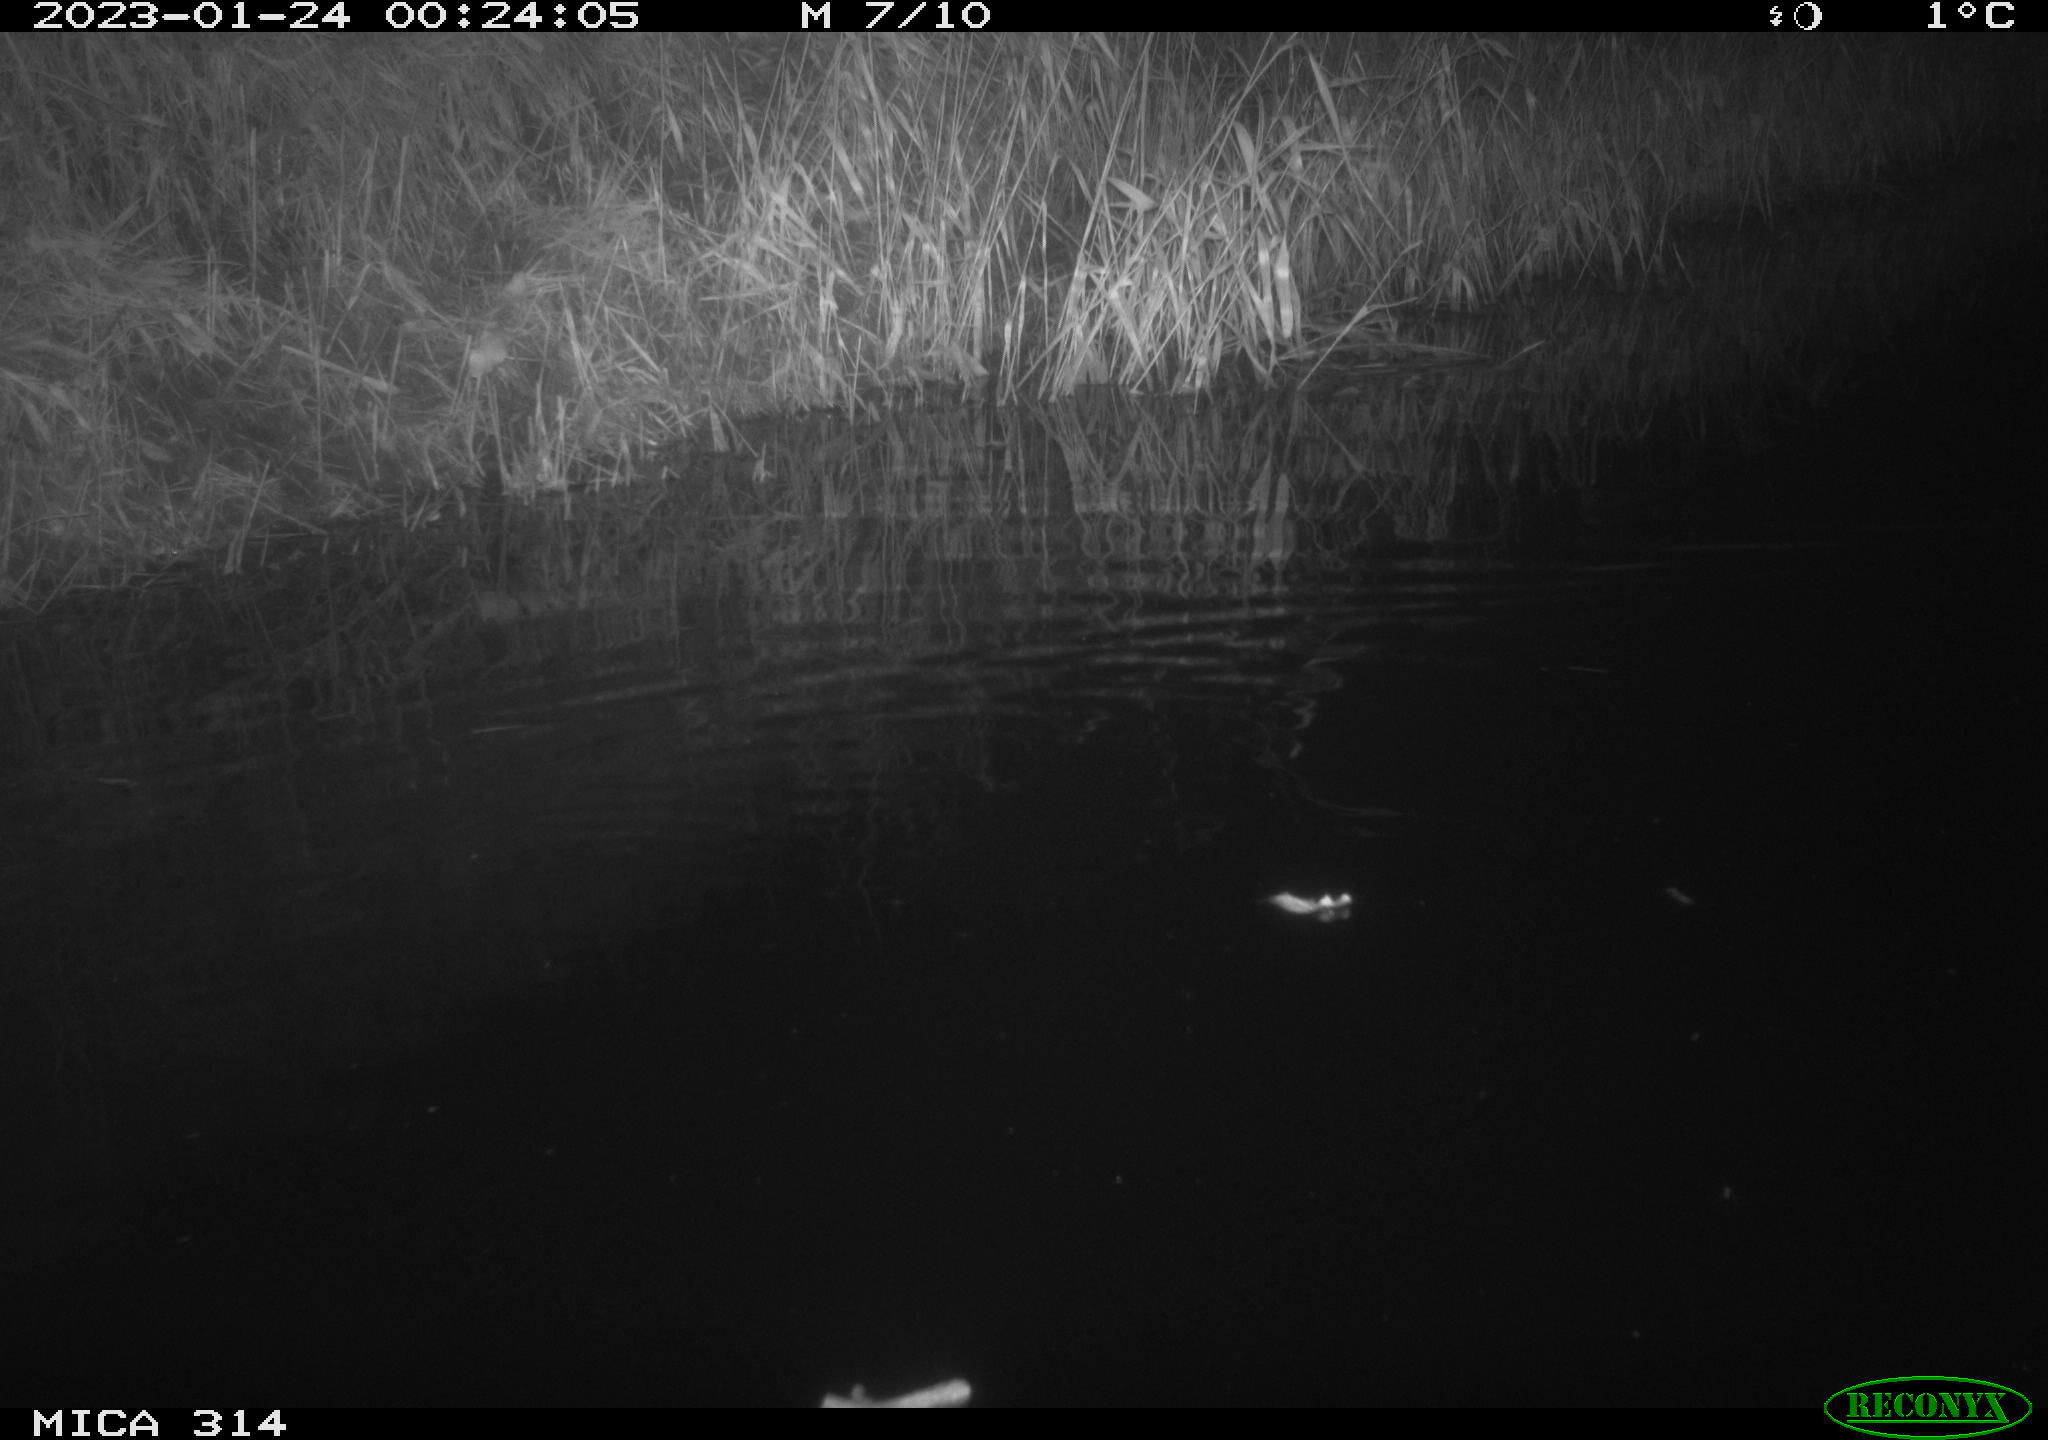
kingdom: Animalia
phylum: Chordata
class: Mammalia
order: Rodentia
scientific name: Rodentia
